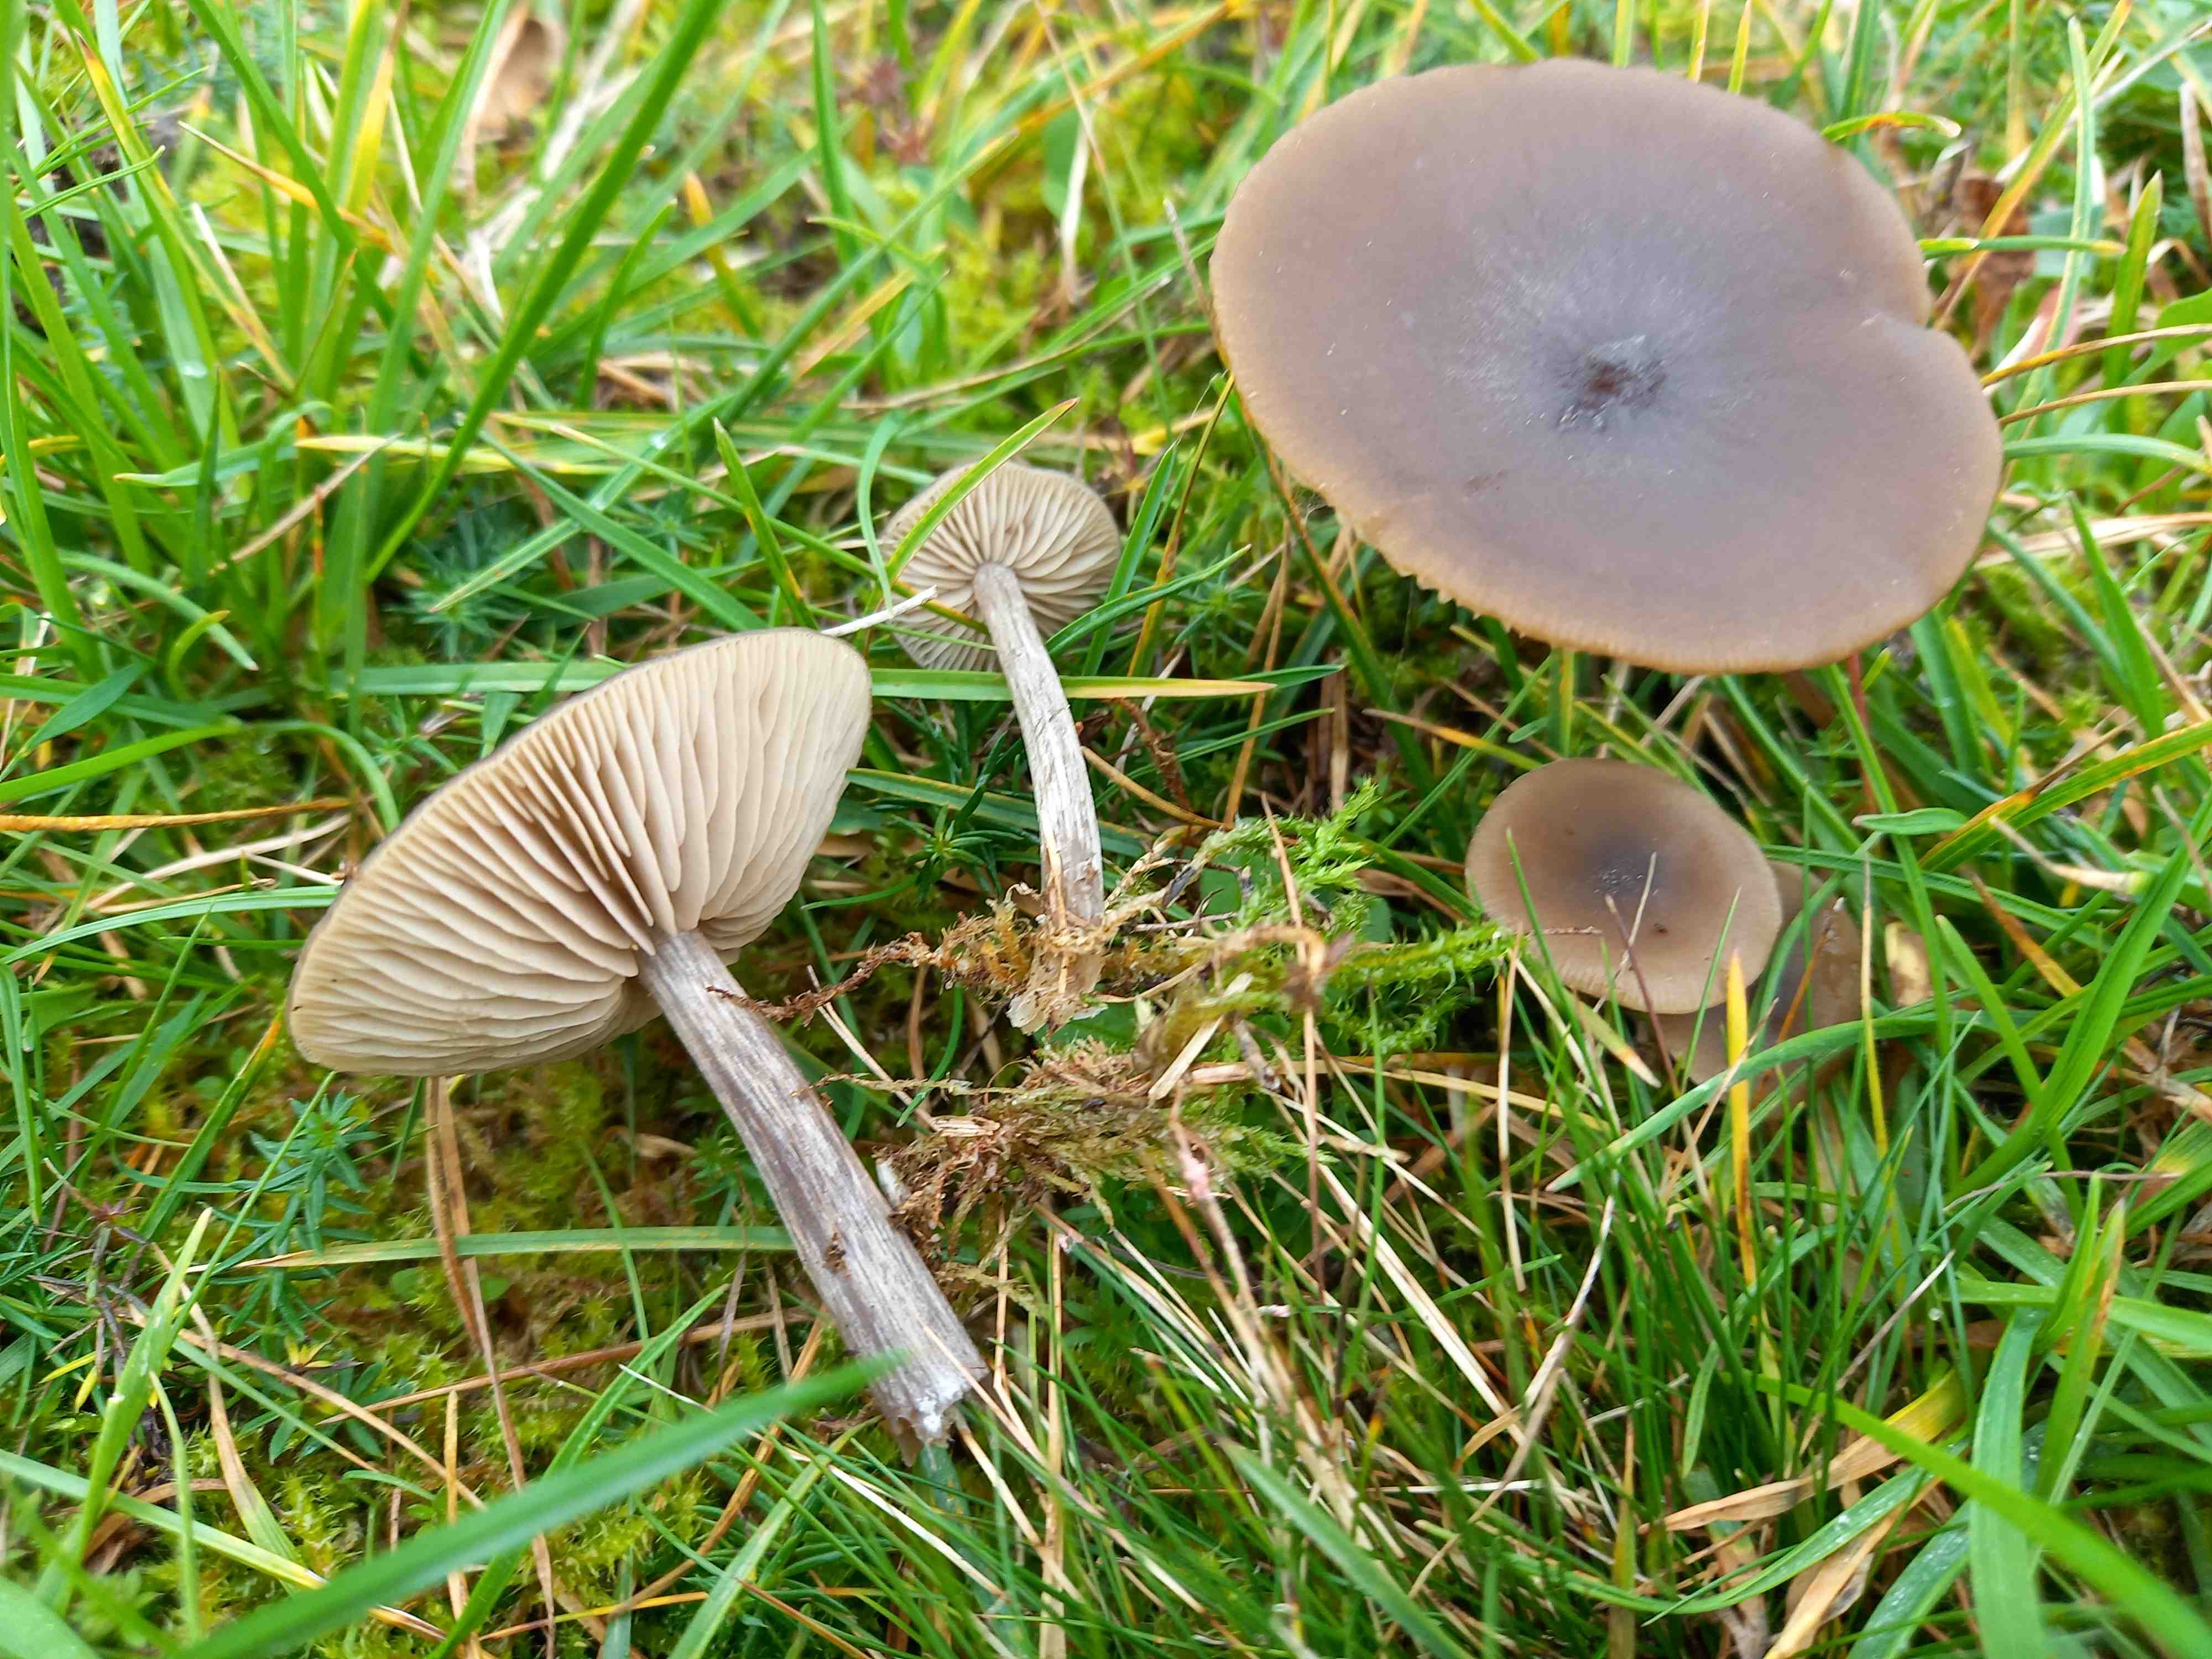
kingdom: Fungi
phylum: Basidiomycota
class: Agaricomycetes
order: Agaricales
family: Entolomataceae
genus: Entoloma
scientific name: Entoloma vindobonense
